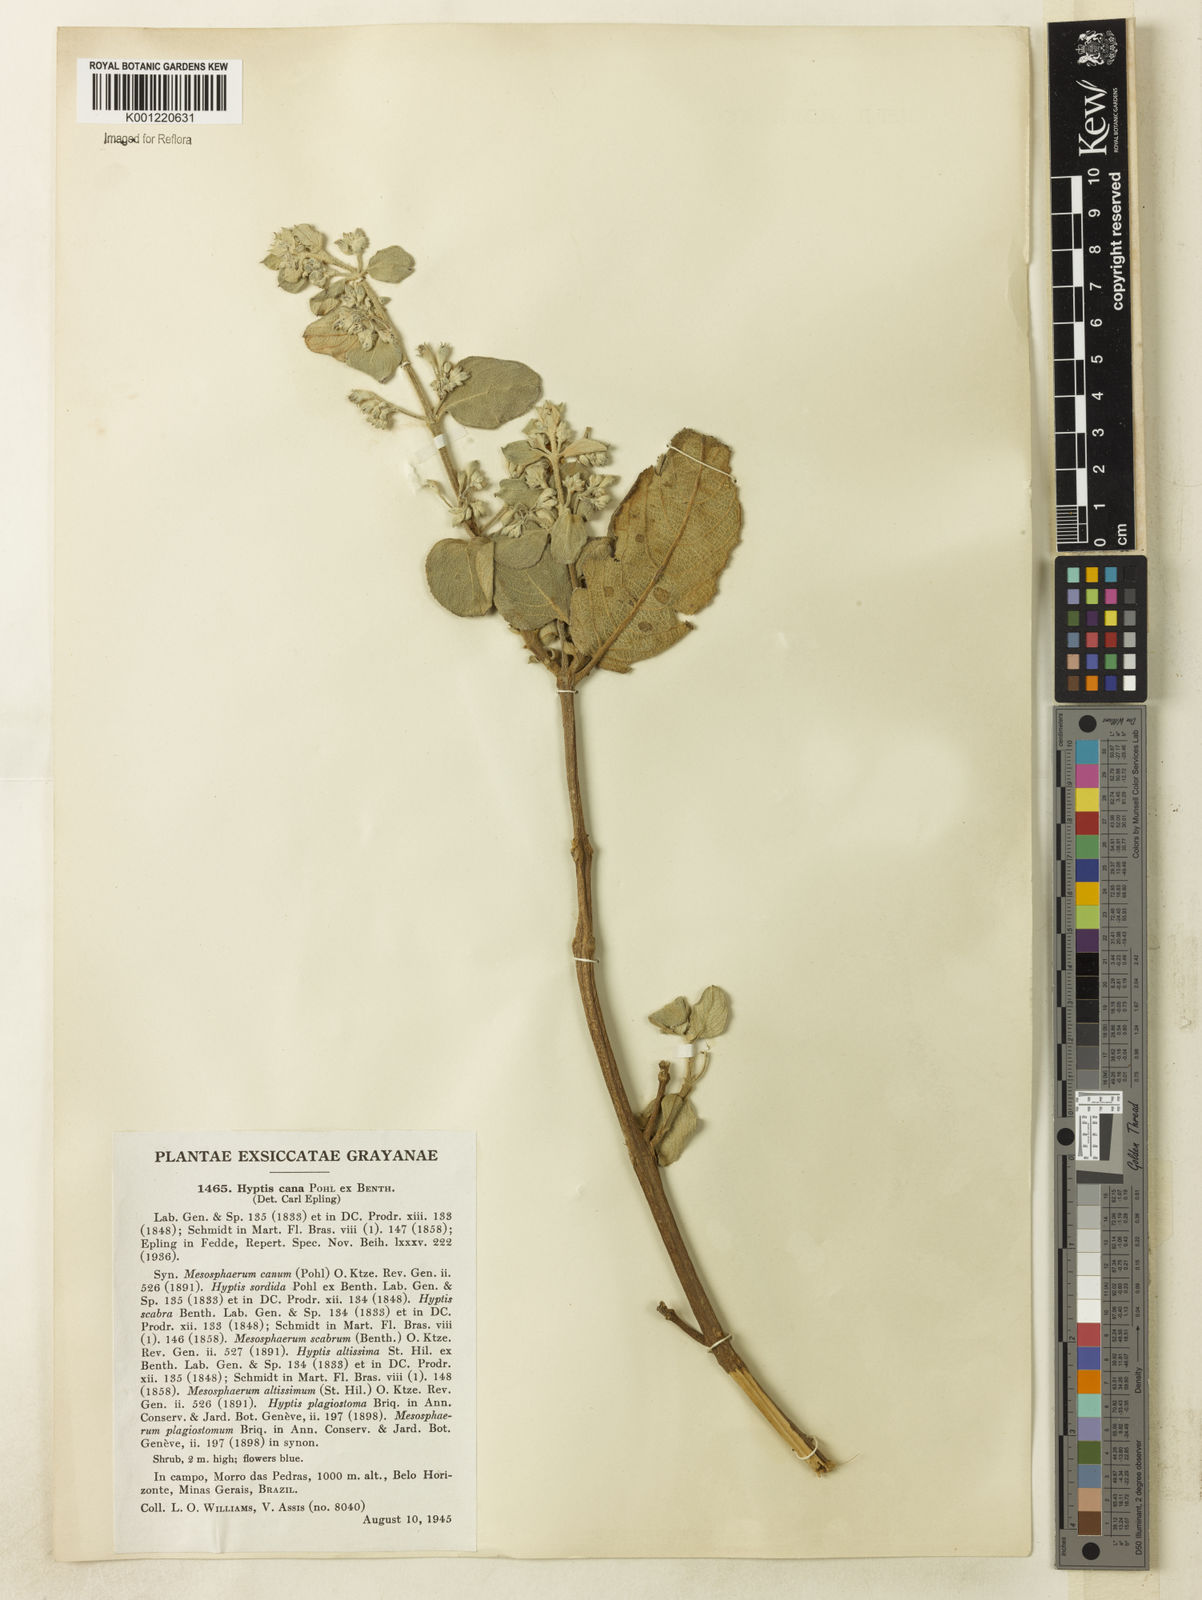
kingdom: Plantae
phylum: Tracheophyta
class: Magnoliopsida
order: Lamiales
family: Lamiaceae
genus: Hyptidendron
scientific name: Hyptidendron canum
